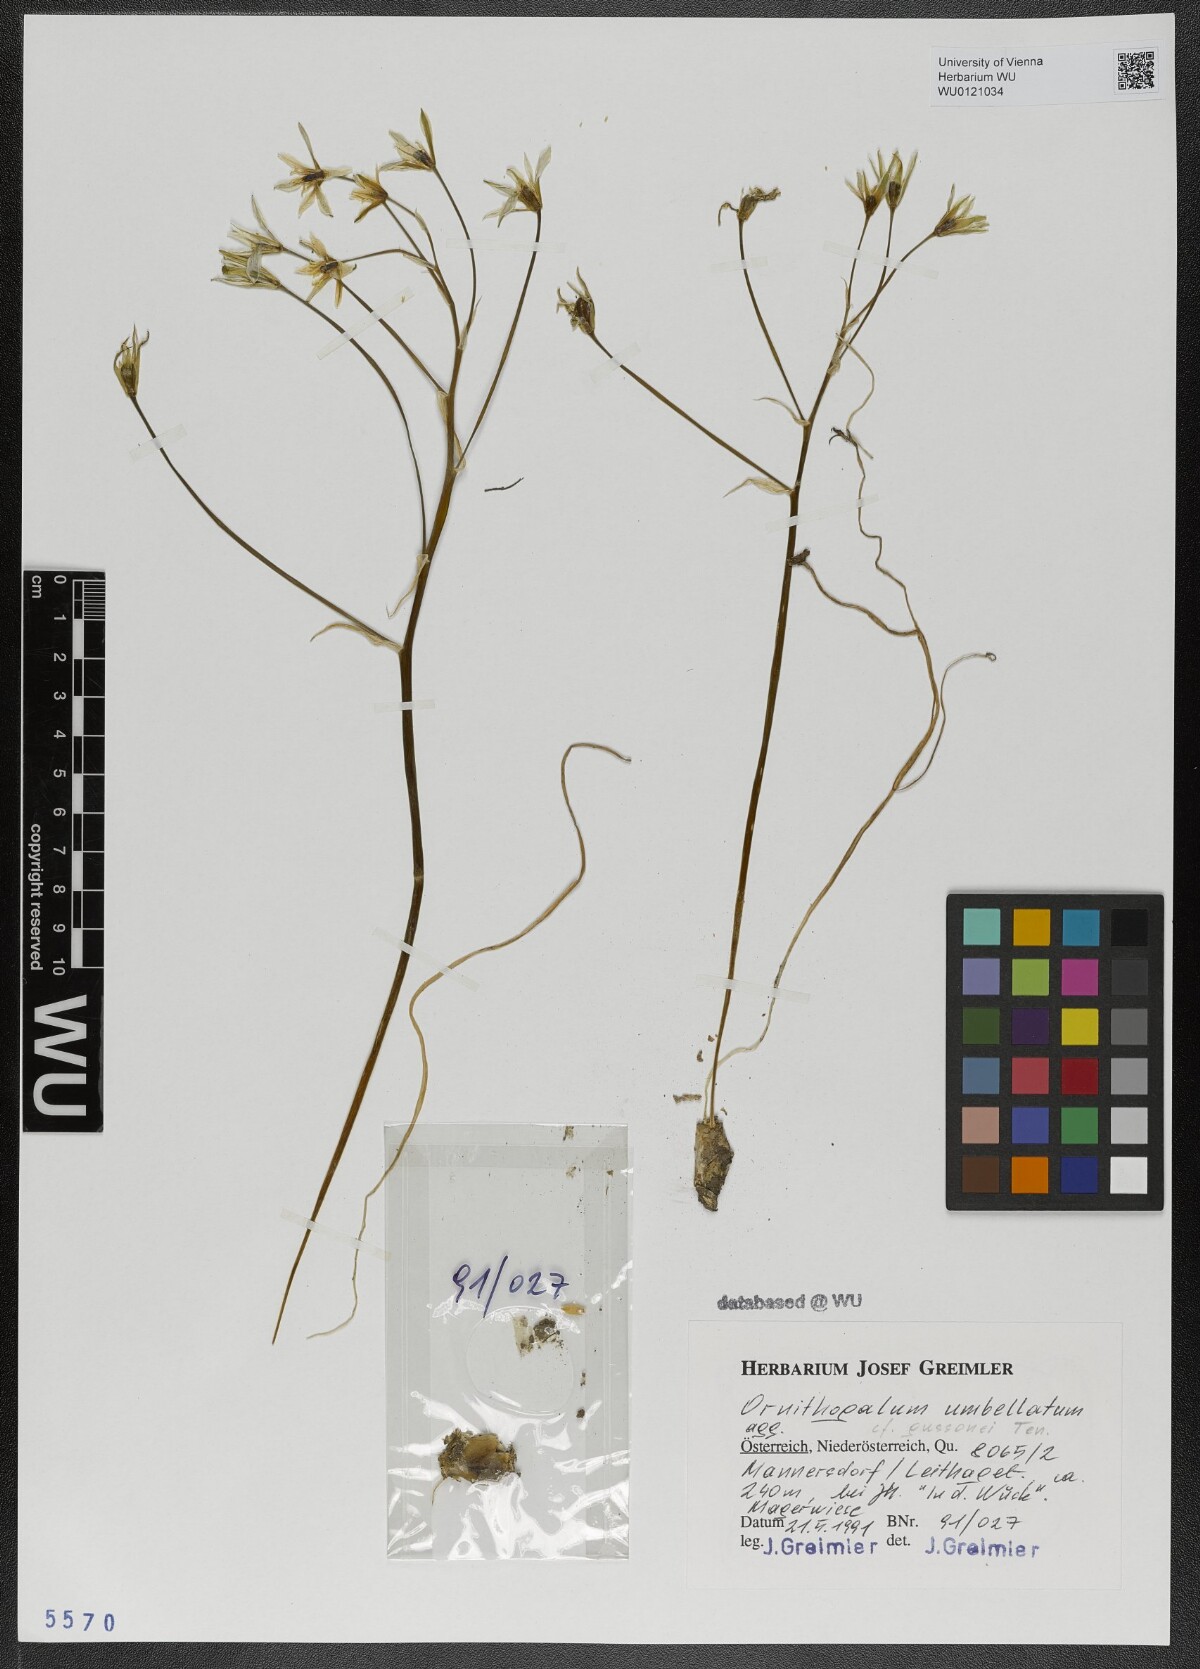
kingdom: Plantae
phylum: Tracheophyta
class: Liliopsida
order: Asparagales
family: Asparagaceae
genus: Ornithogalum
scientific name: Ornithogalum gussonei
